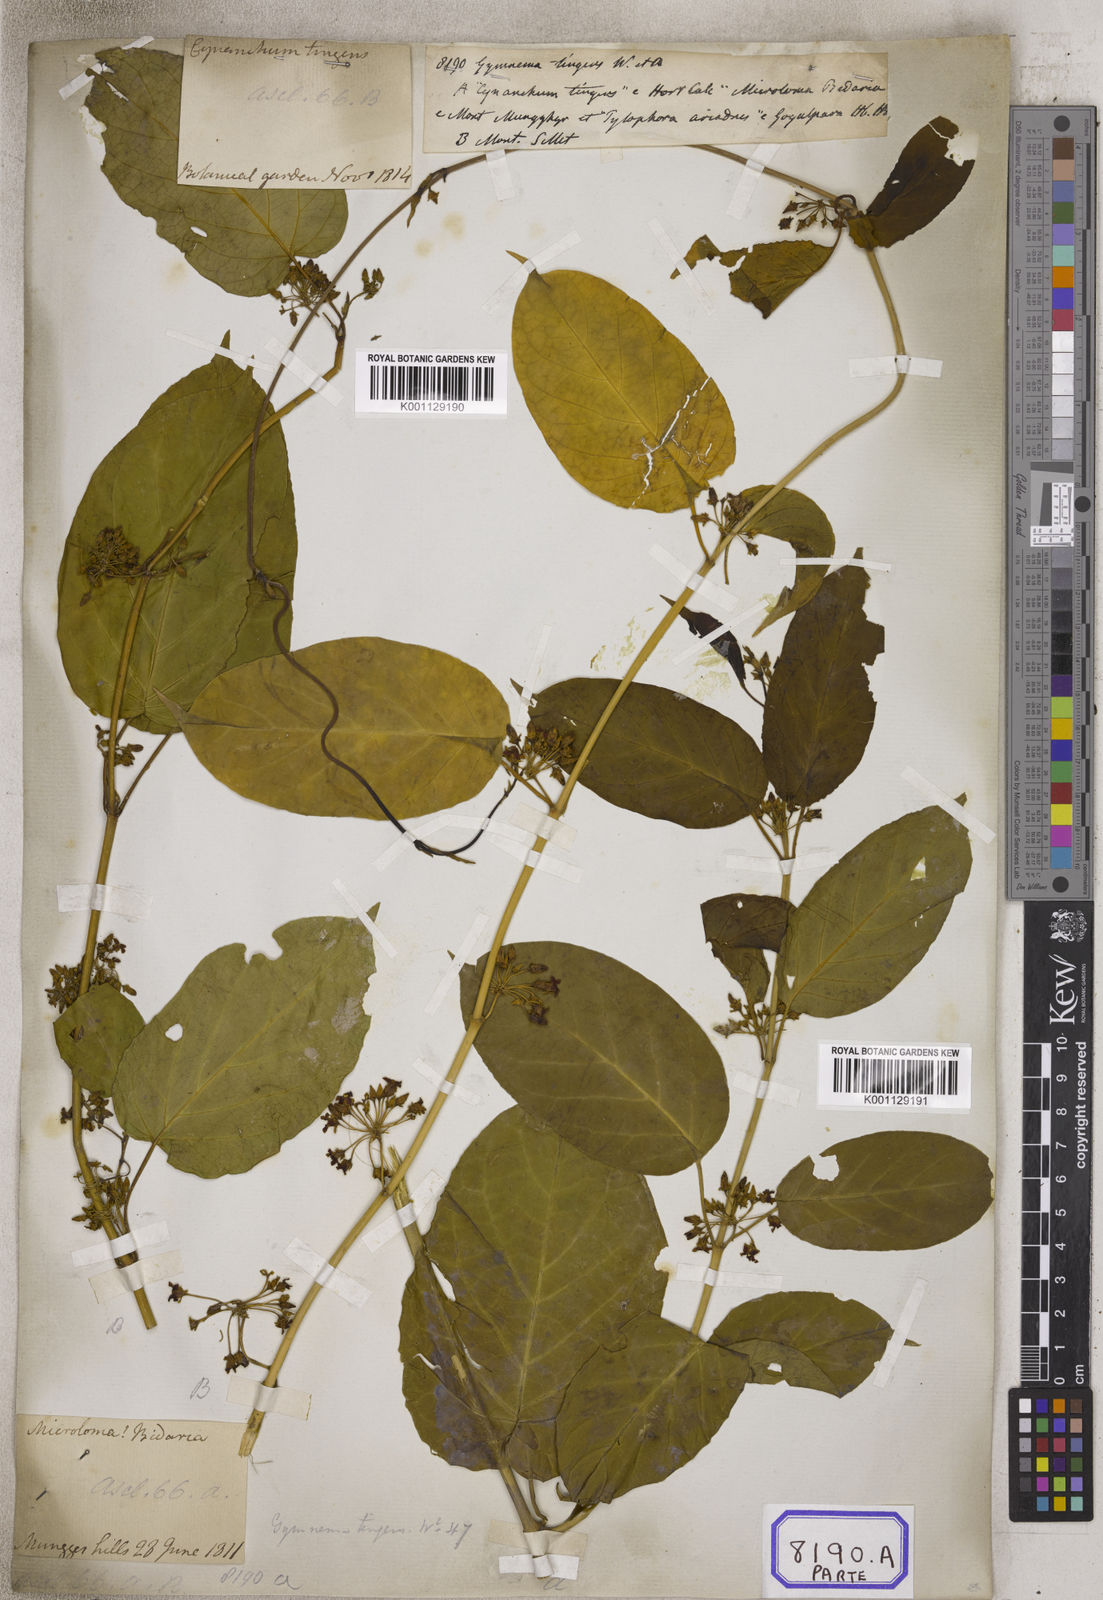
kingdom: Plantae
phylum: Tracheophyta
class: Magnoliopsida
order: Gentianales
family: Apocynaceae
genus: Gymnema
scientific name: Gymnema inodorum
